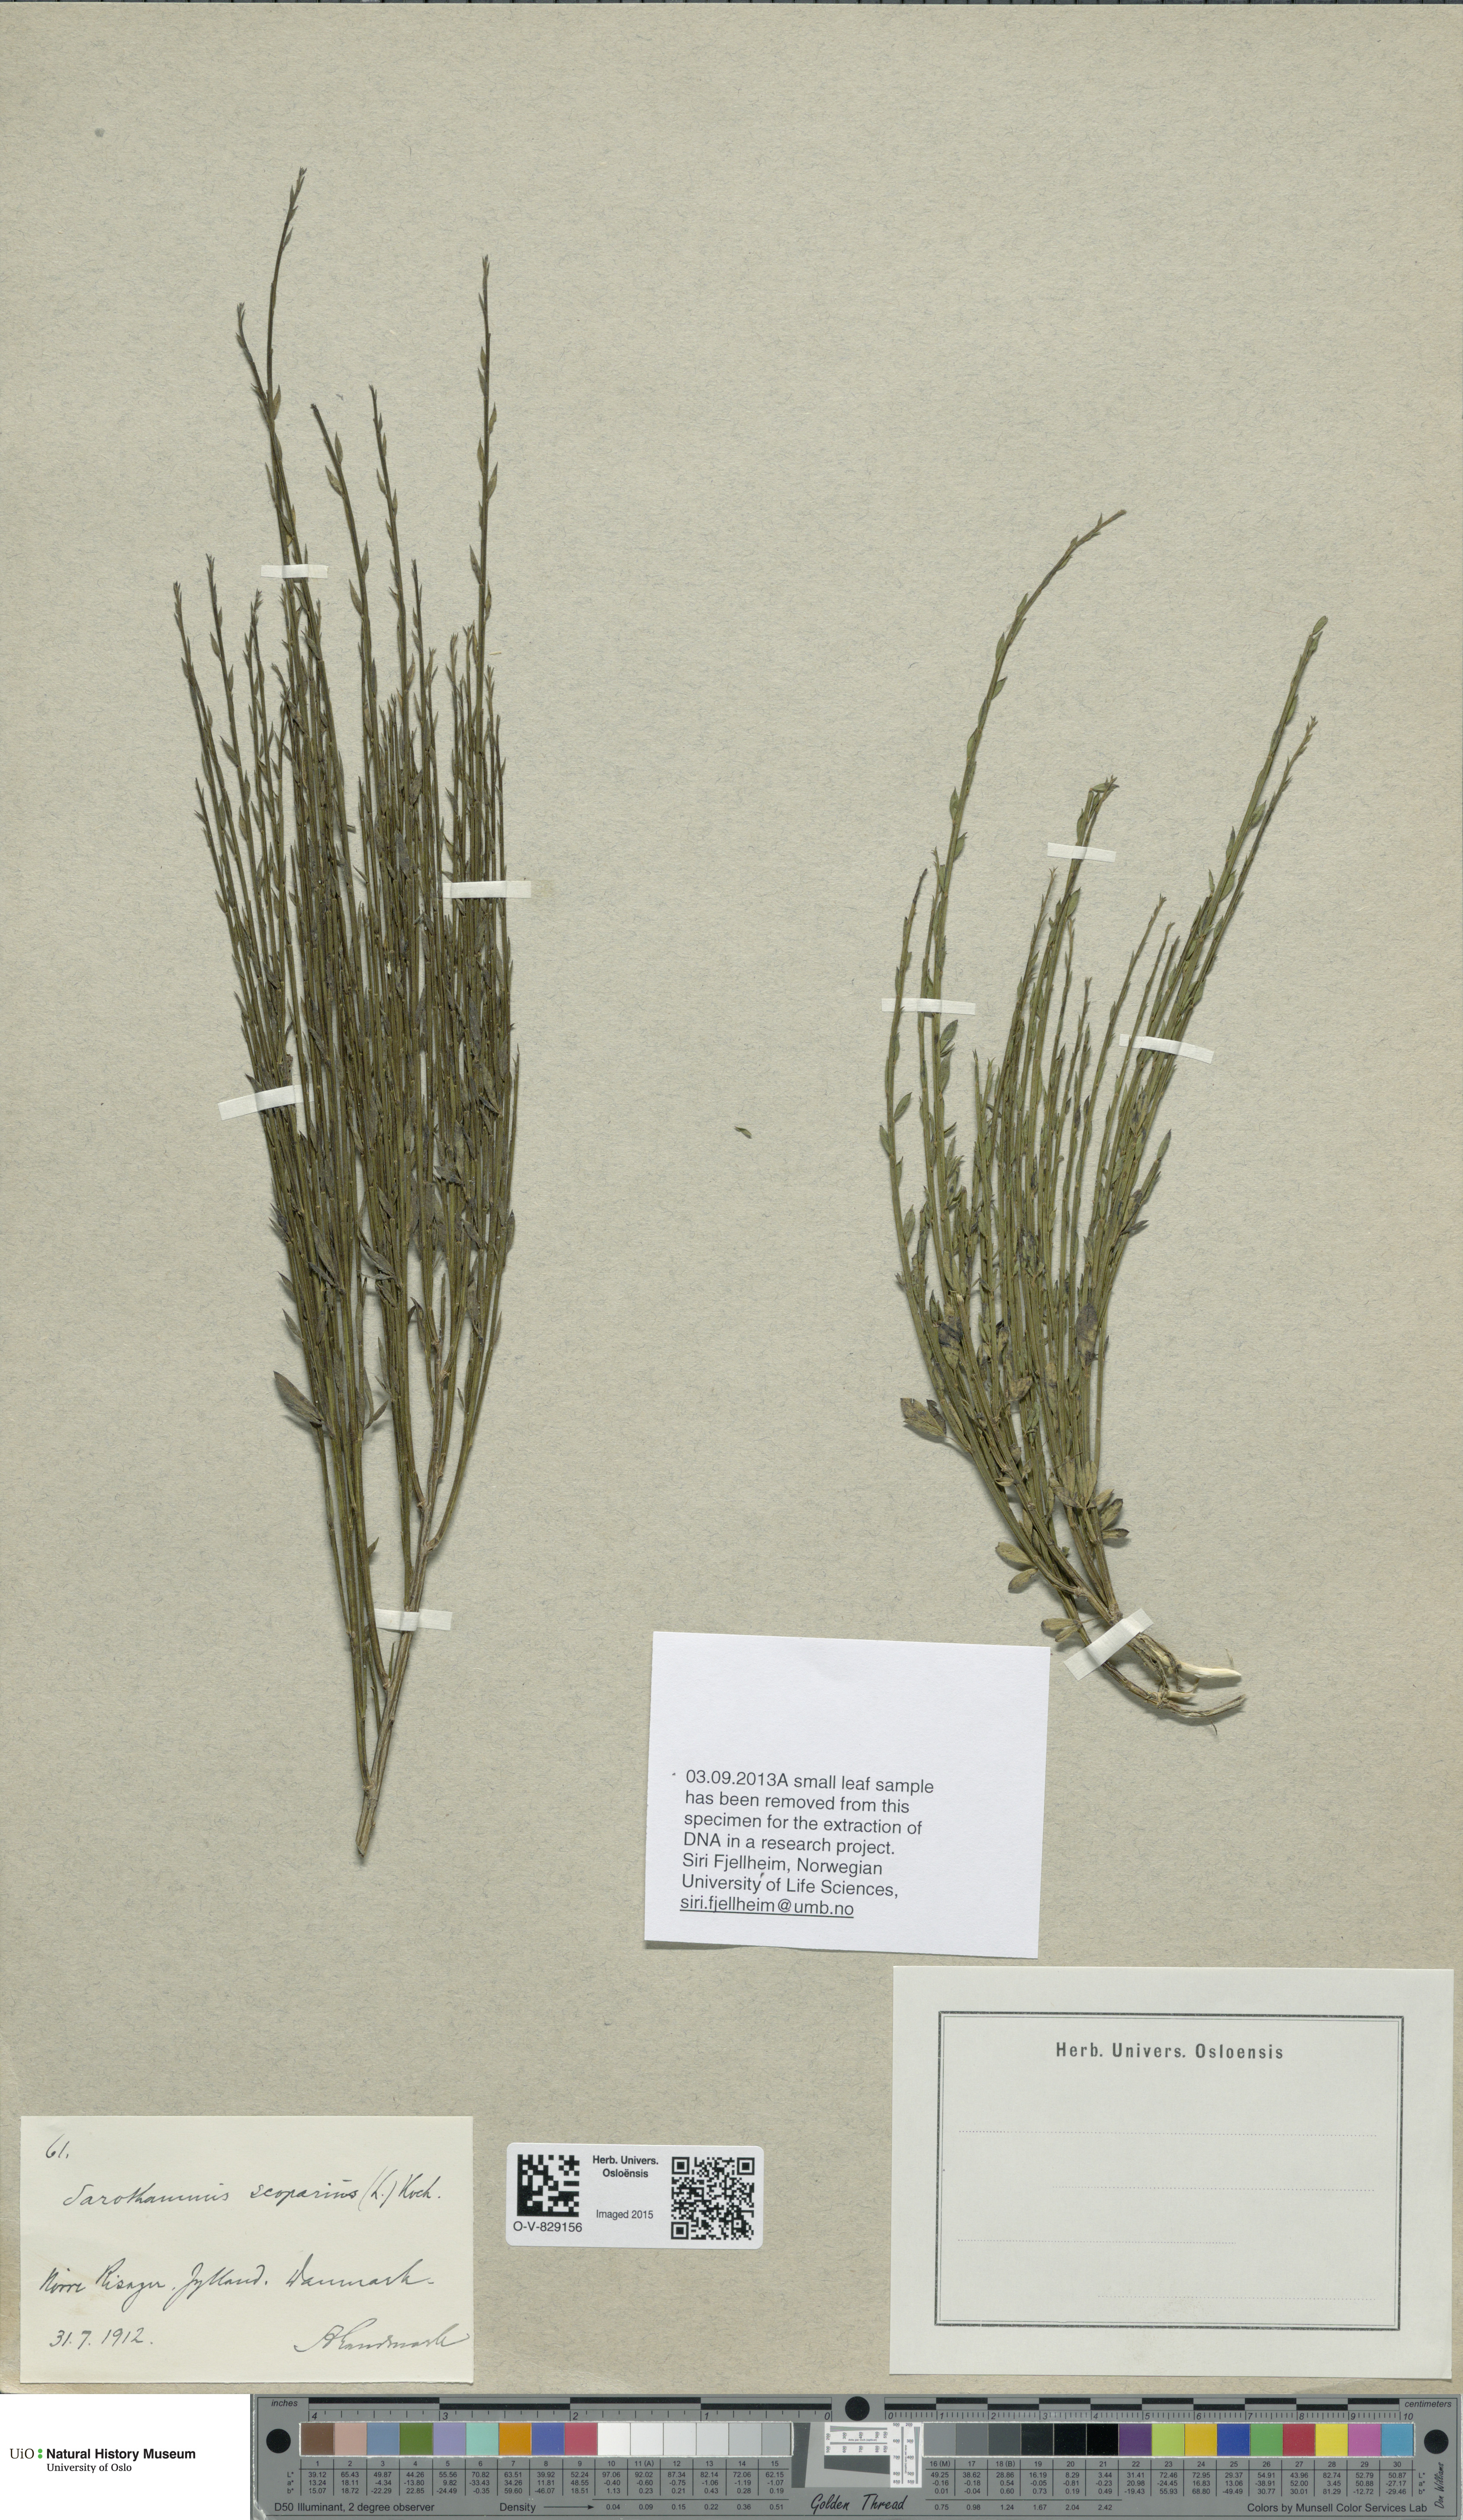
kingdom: Plantae
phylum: Tracheophyta
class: Magnoliopsida
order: Fabales
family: Fabaceae
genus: Cytisus
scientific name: Cytisus scoparius
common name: Scotch broom
